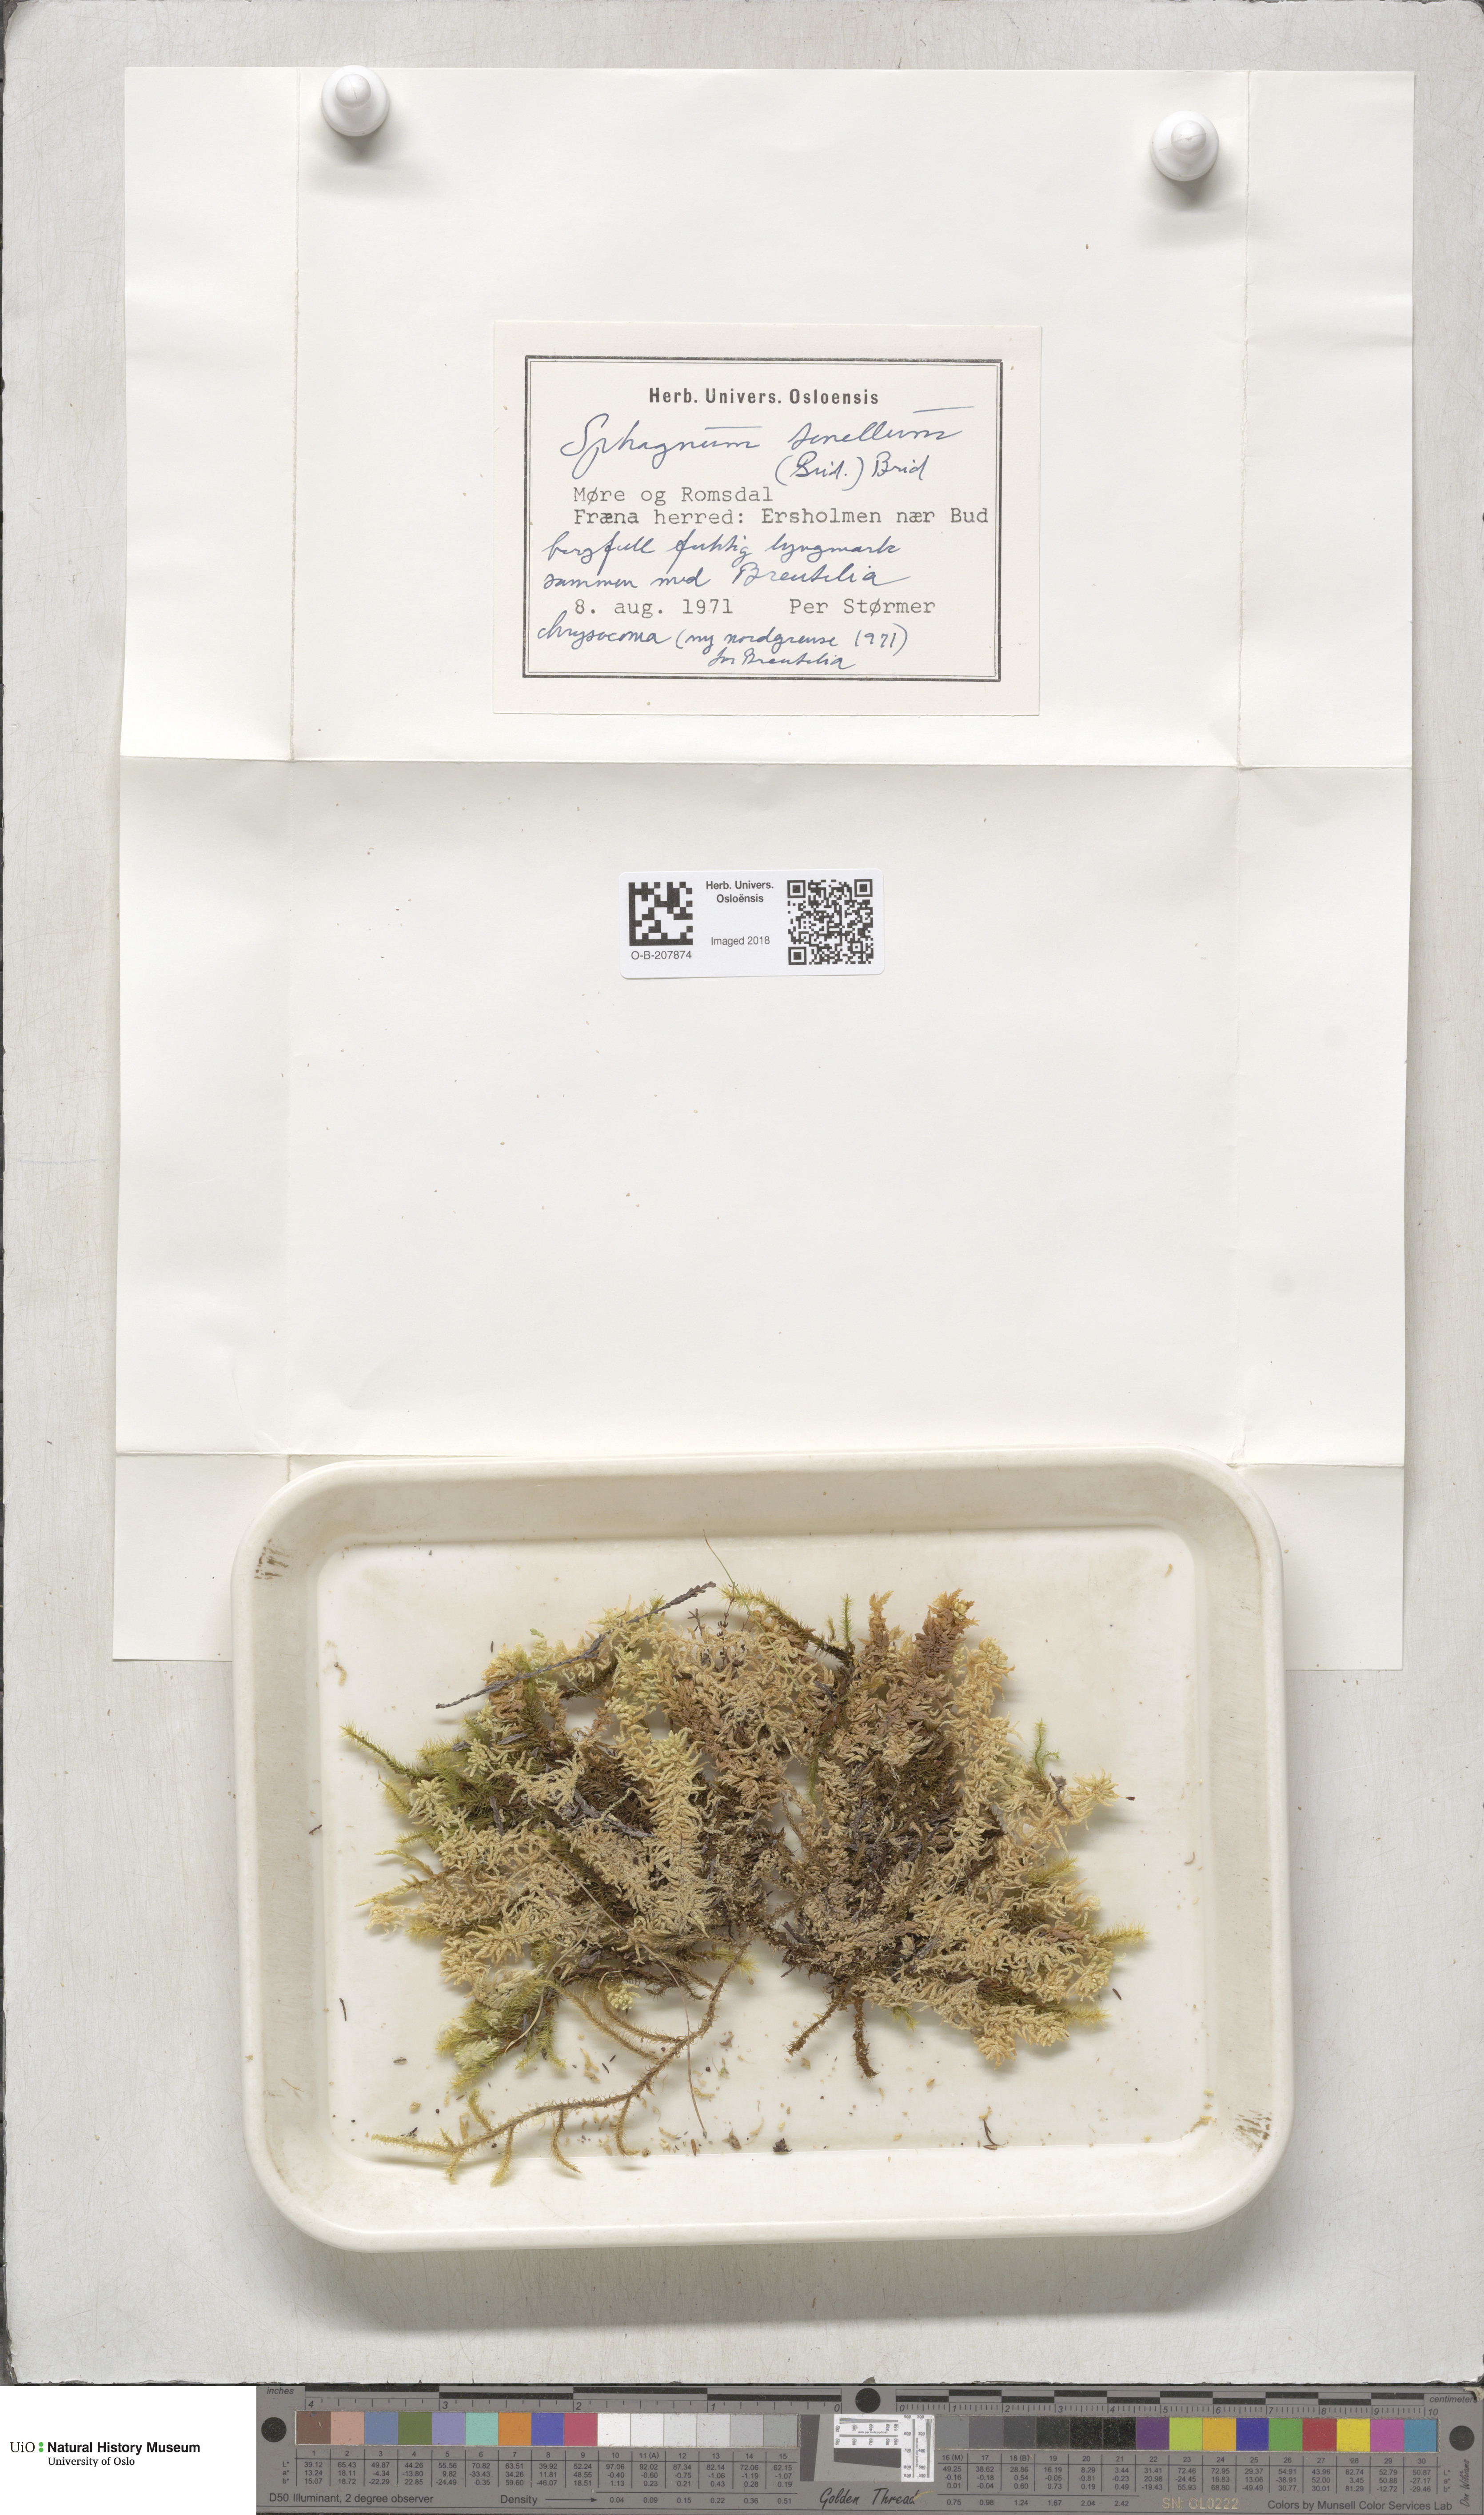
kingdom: Plantae
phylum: Bryophyta
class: Sphagnopsida
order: Sphagnales
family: Sphagnaceae
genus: Sphagnum
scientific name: Sphagnum tenellum
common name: Soft bog-moss
